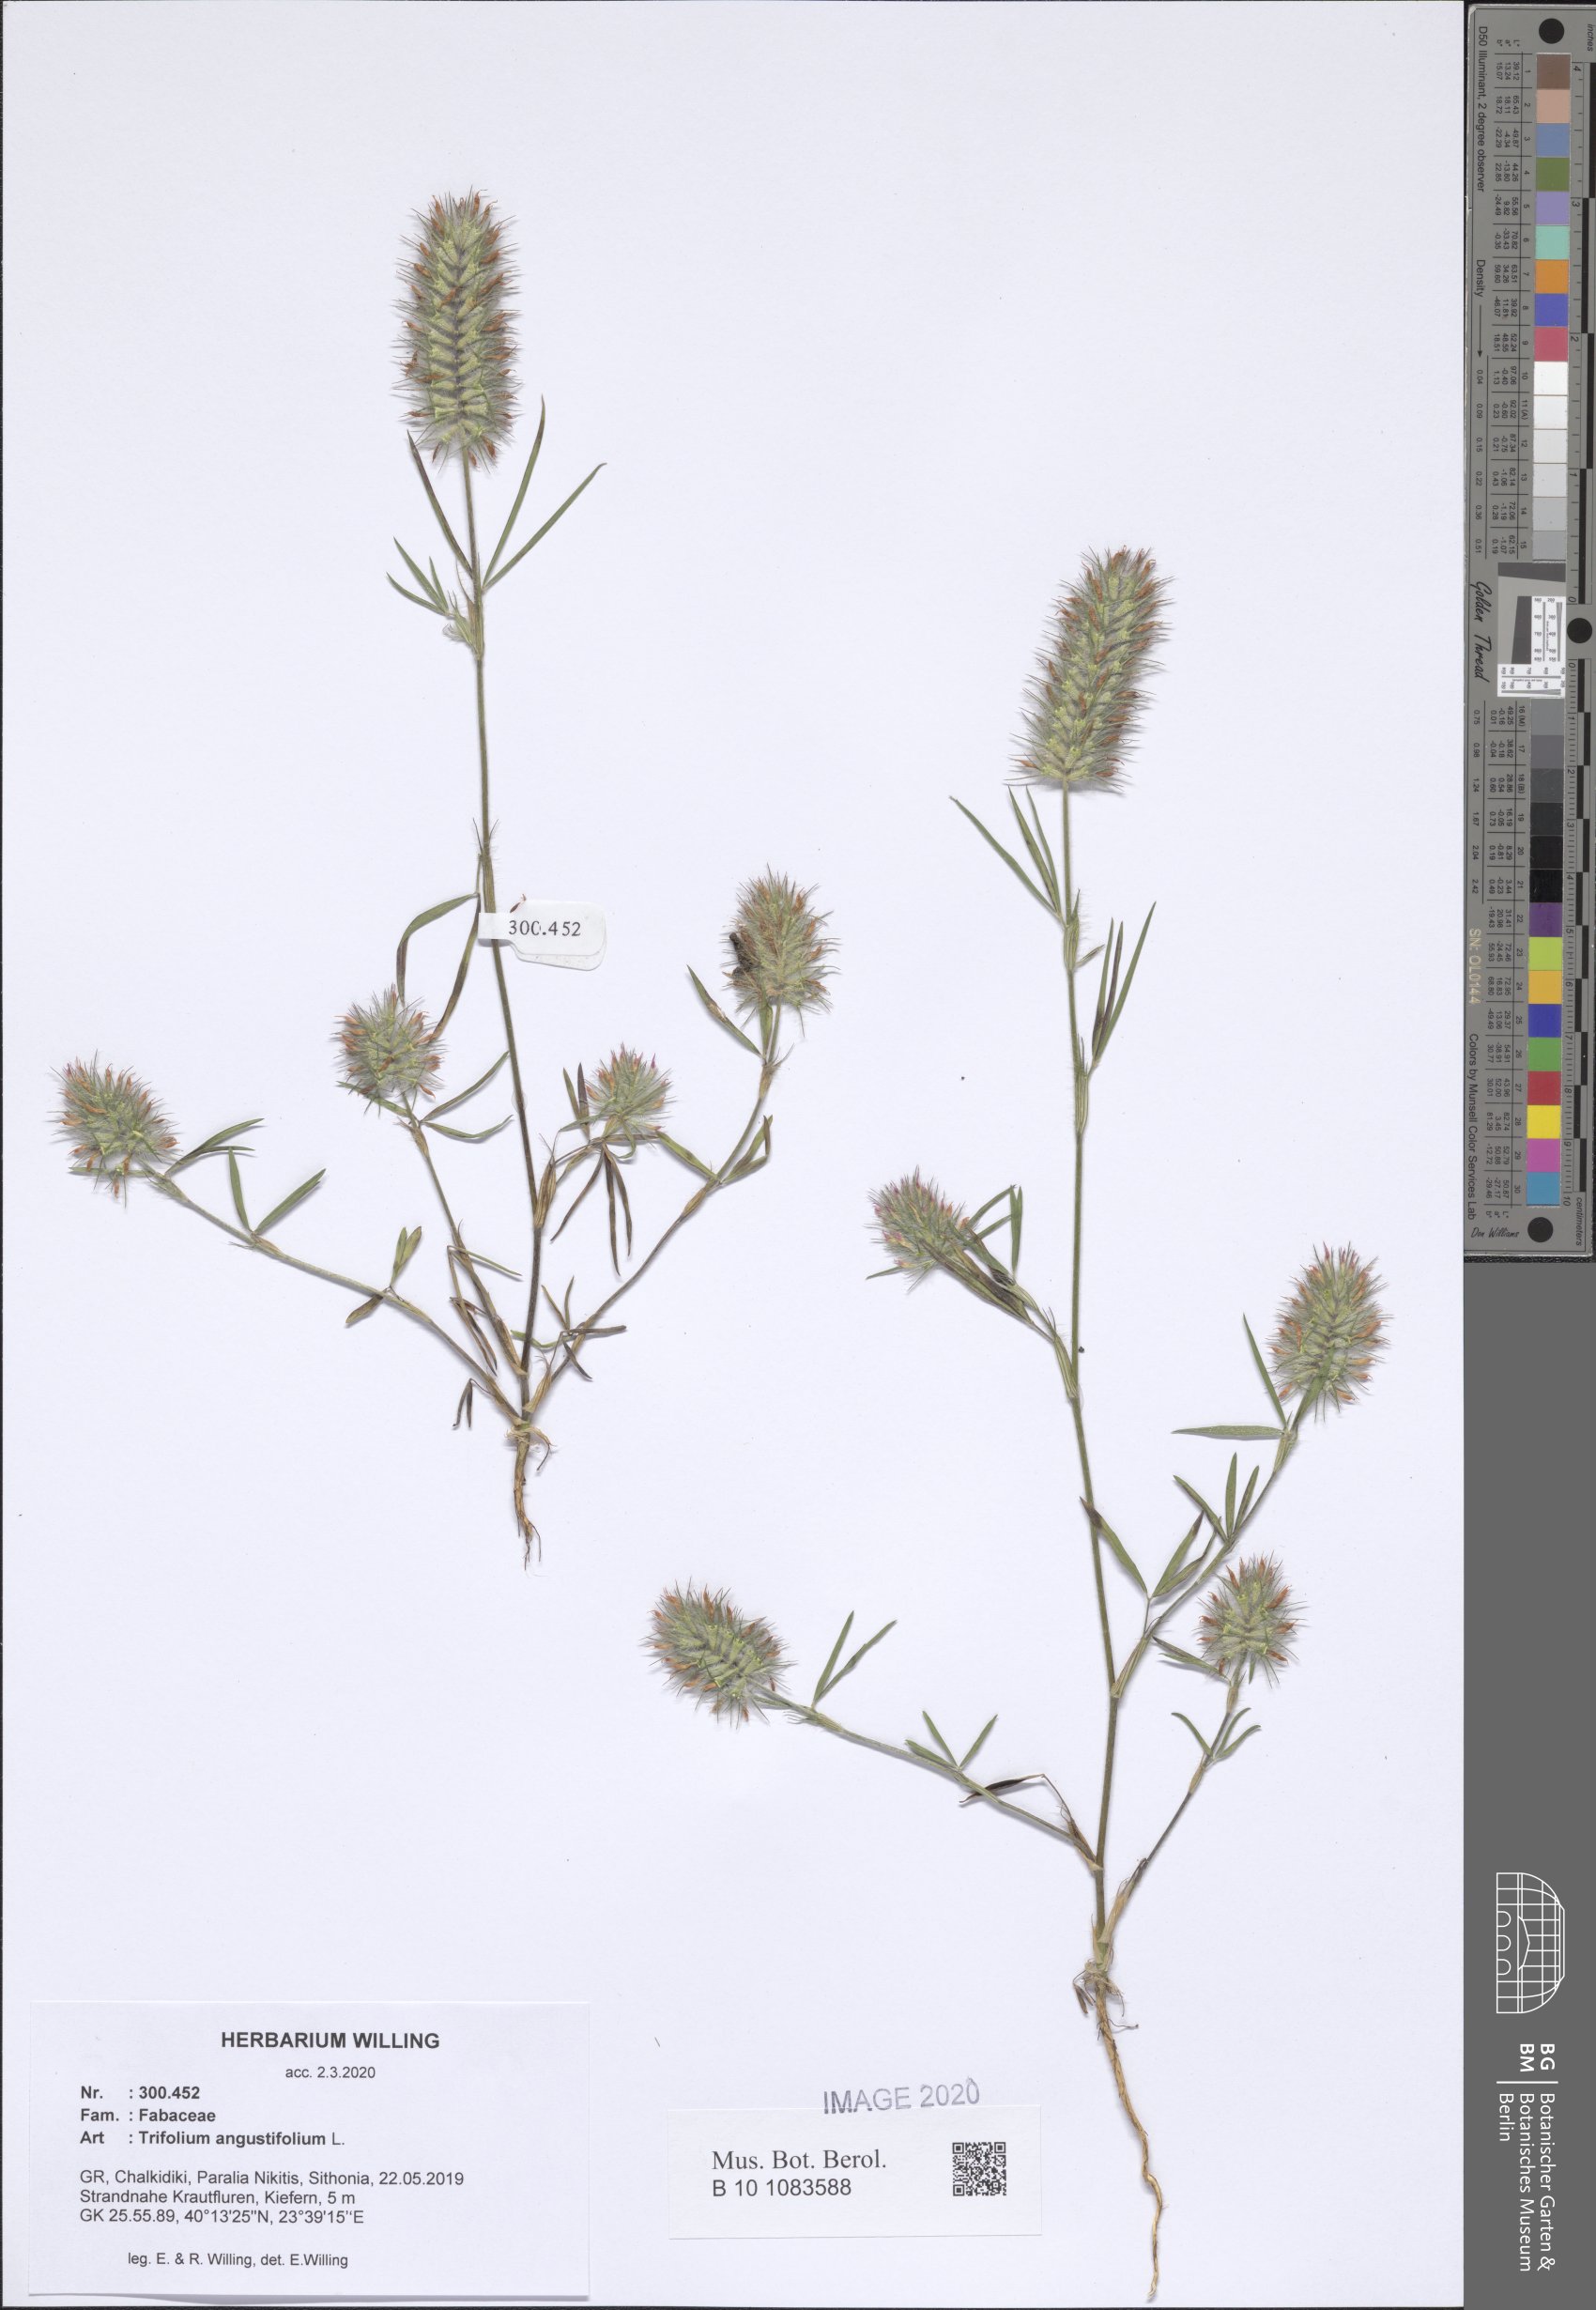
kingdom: Plantae
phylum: Tracheophyta
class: Magnoliopsida
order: Fabales
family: Fabaceae
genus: Trifolium
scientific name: Trifolium angustifolium
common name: Narrow clover
